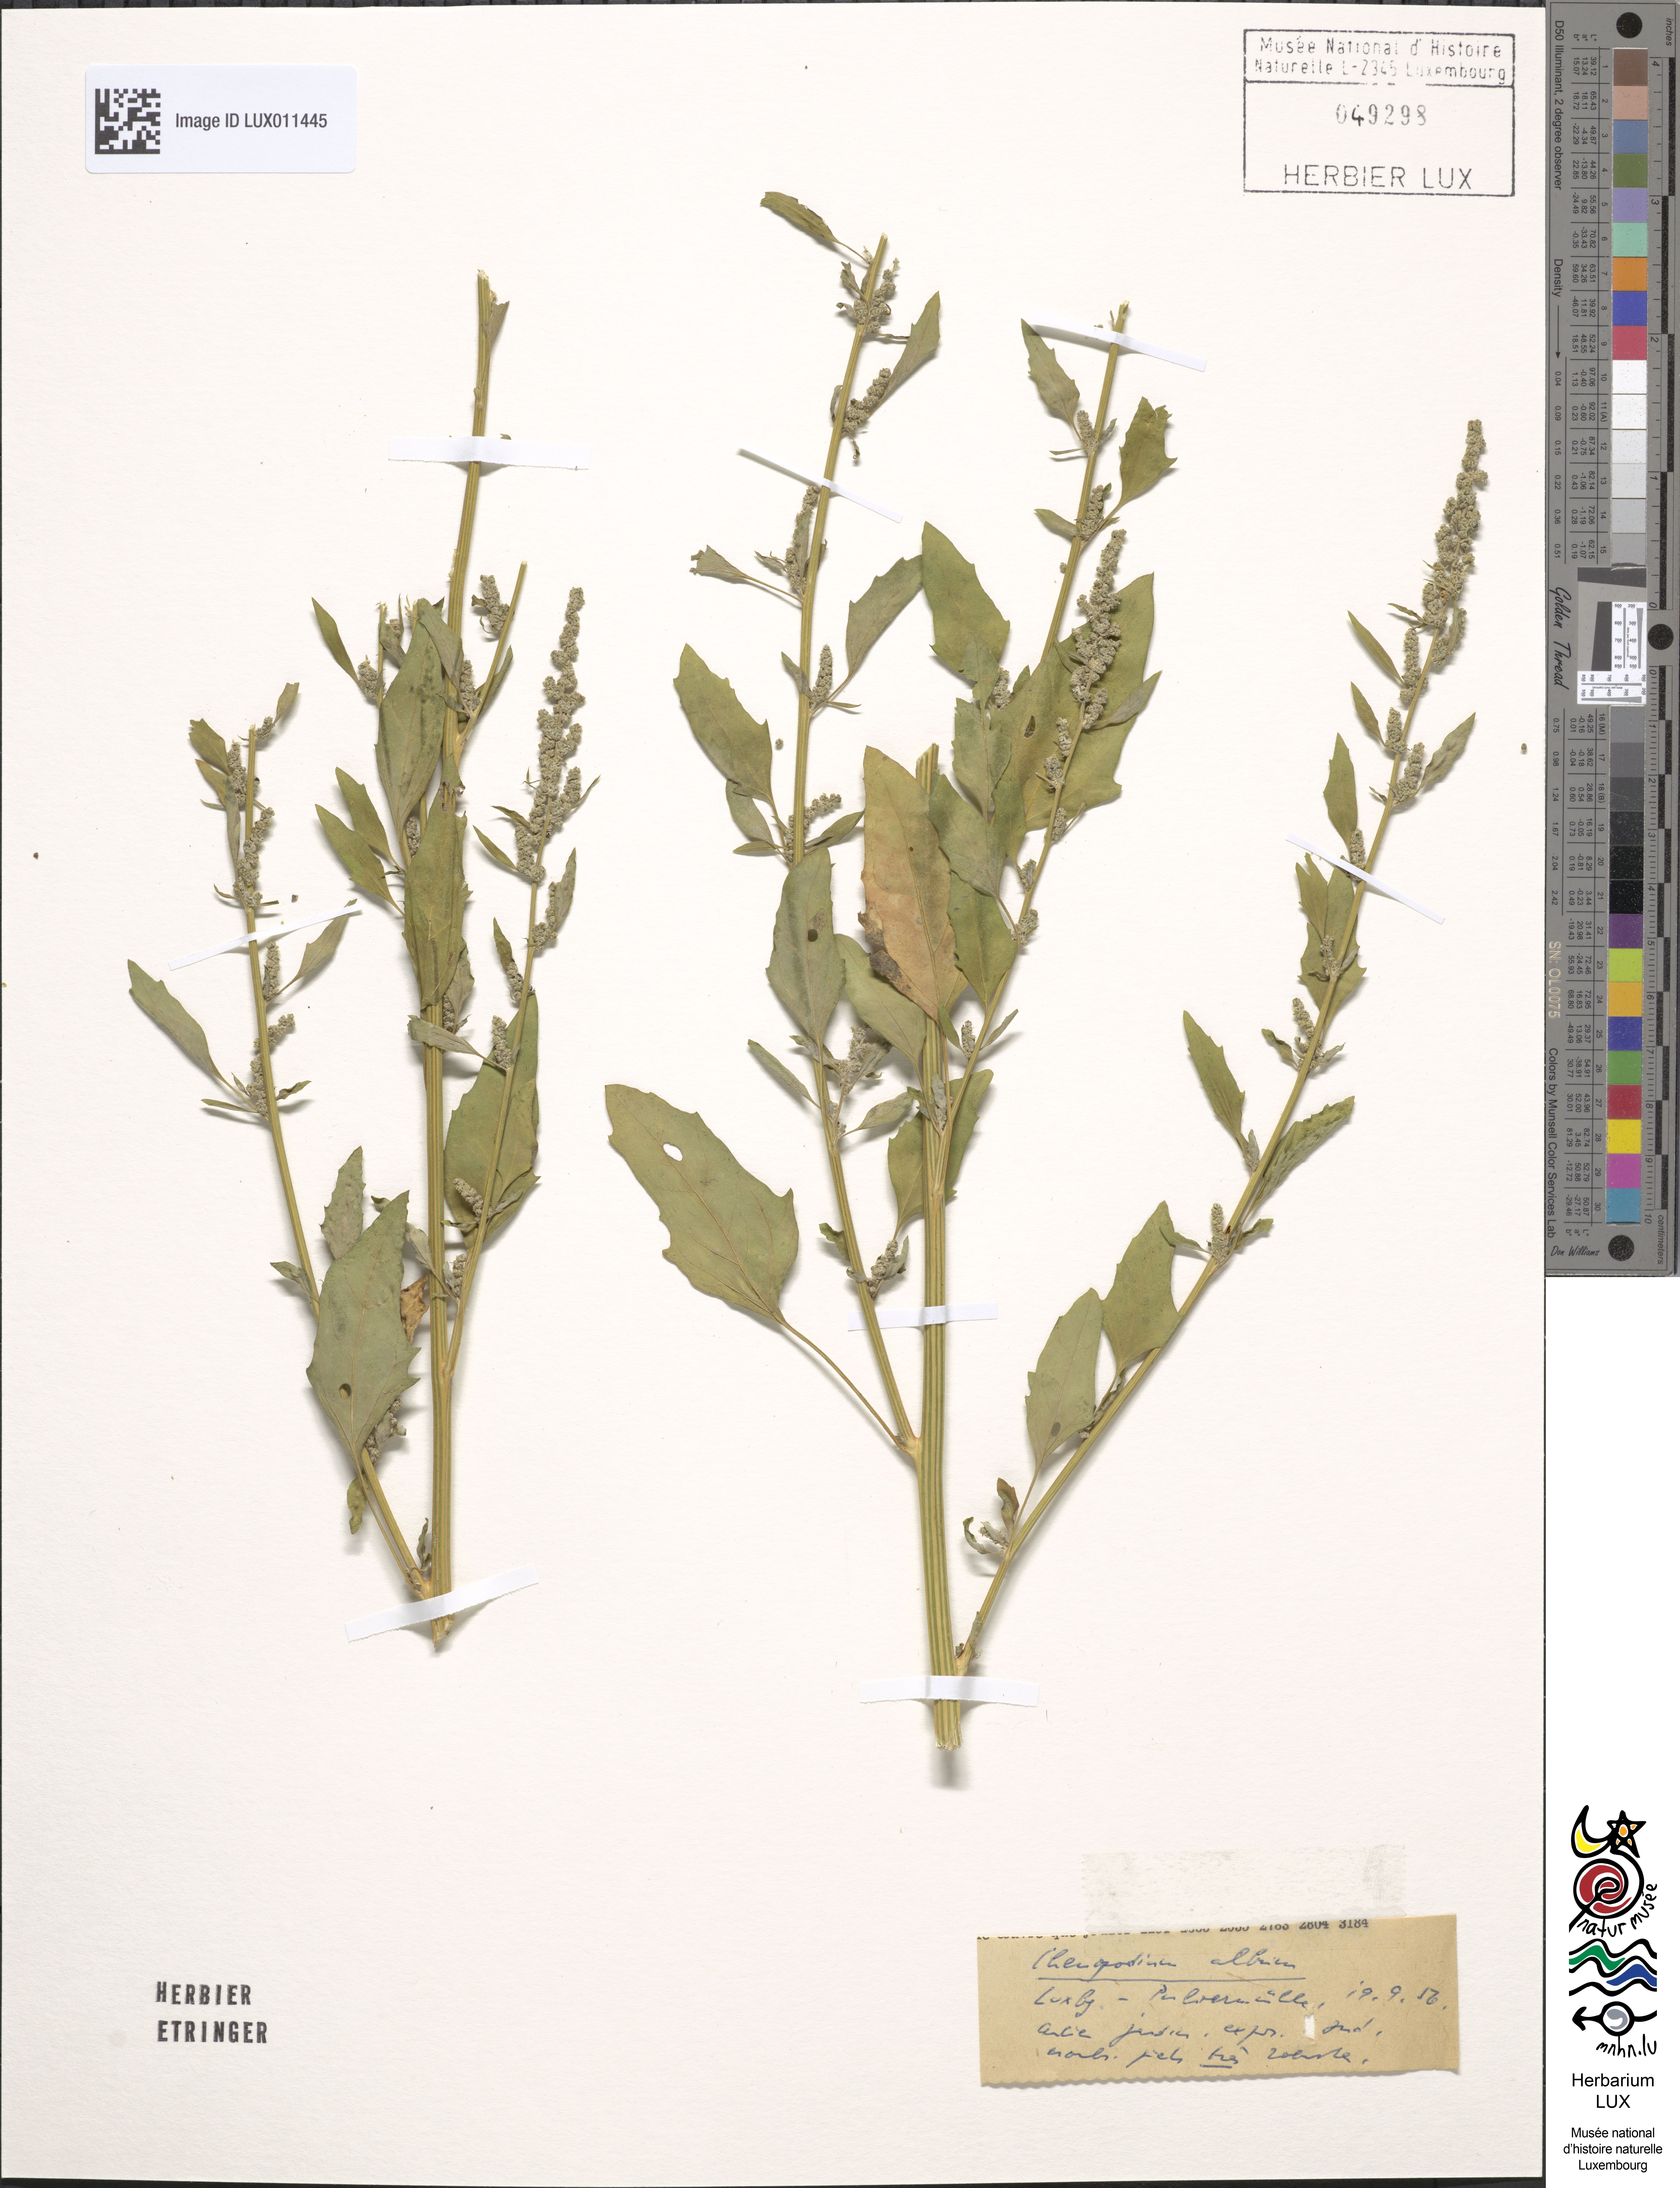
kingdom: Plantae
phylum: Tracheophyta
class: Magnoliopsida
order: Caryophyllales
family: Amaranthaceae
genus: Chenopodium
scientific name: Chenopodium album
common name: Fat-hen
